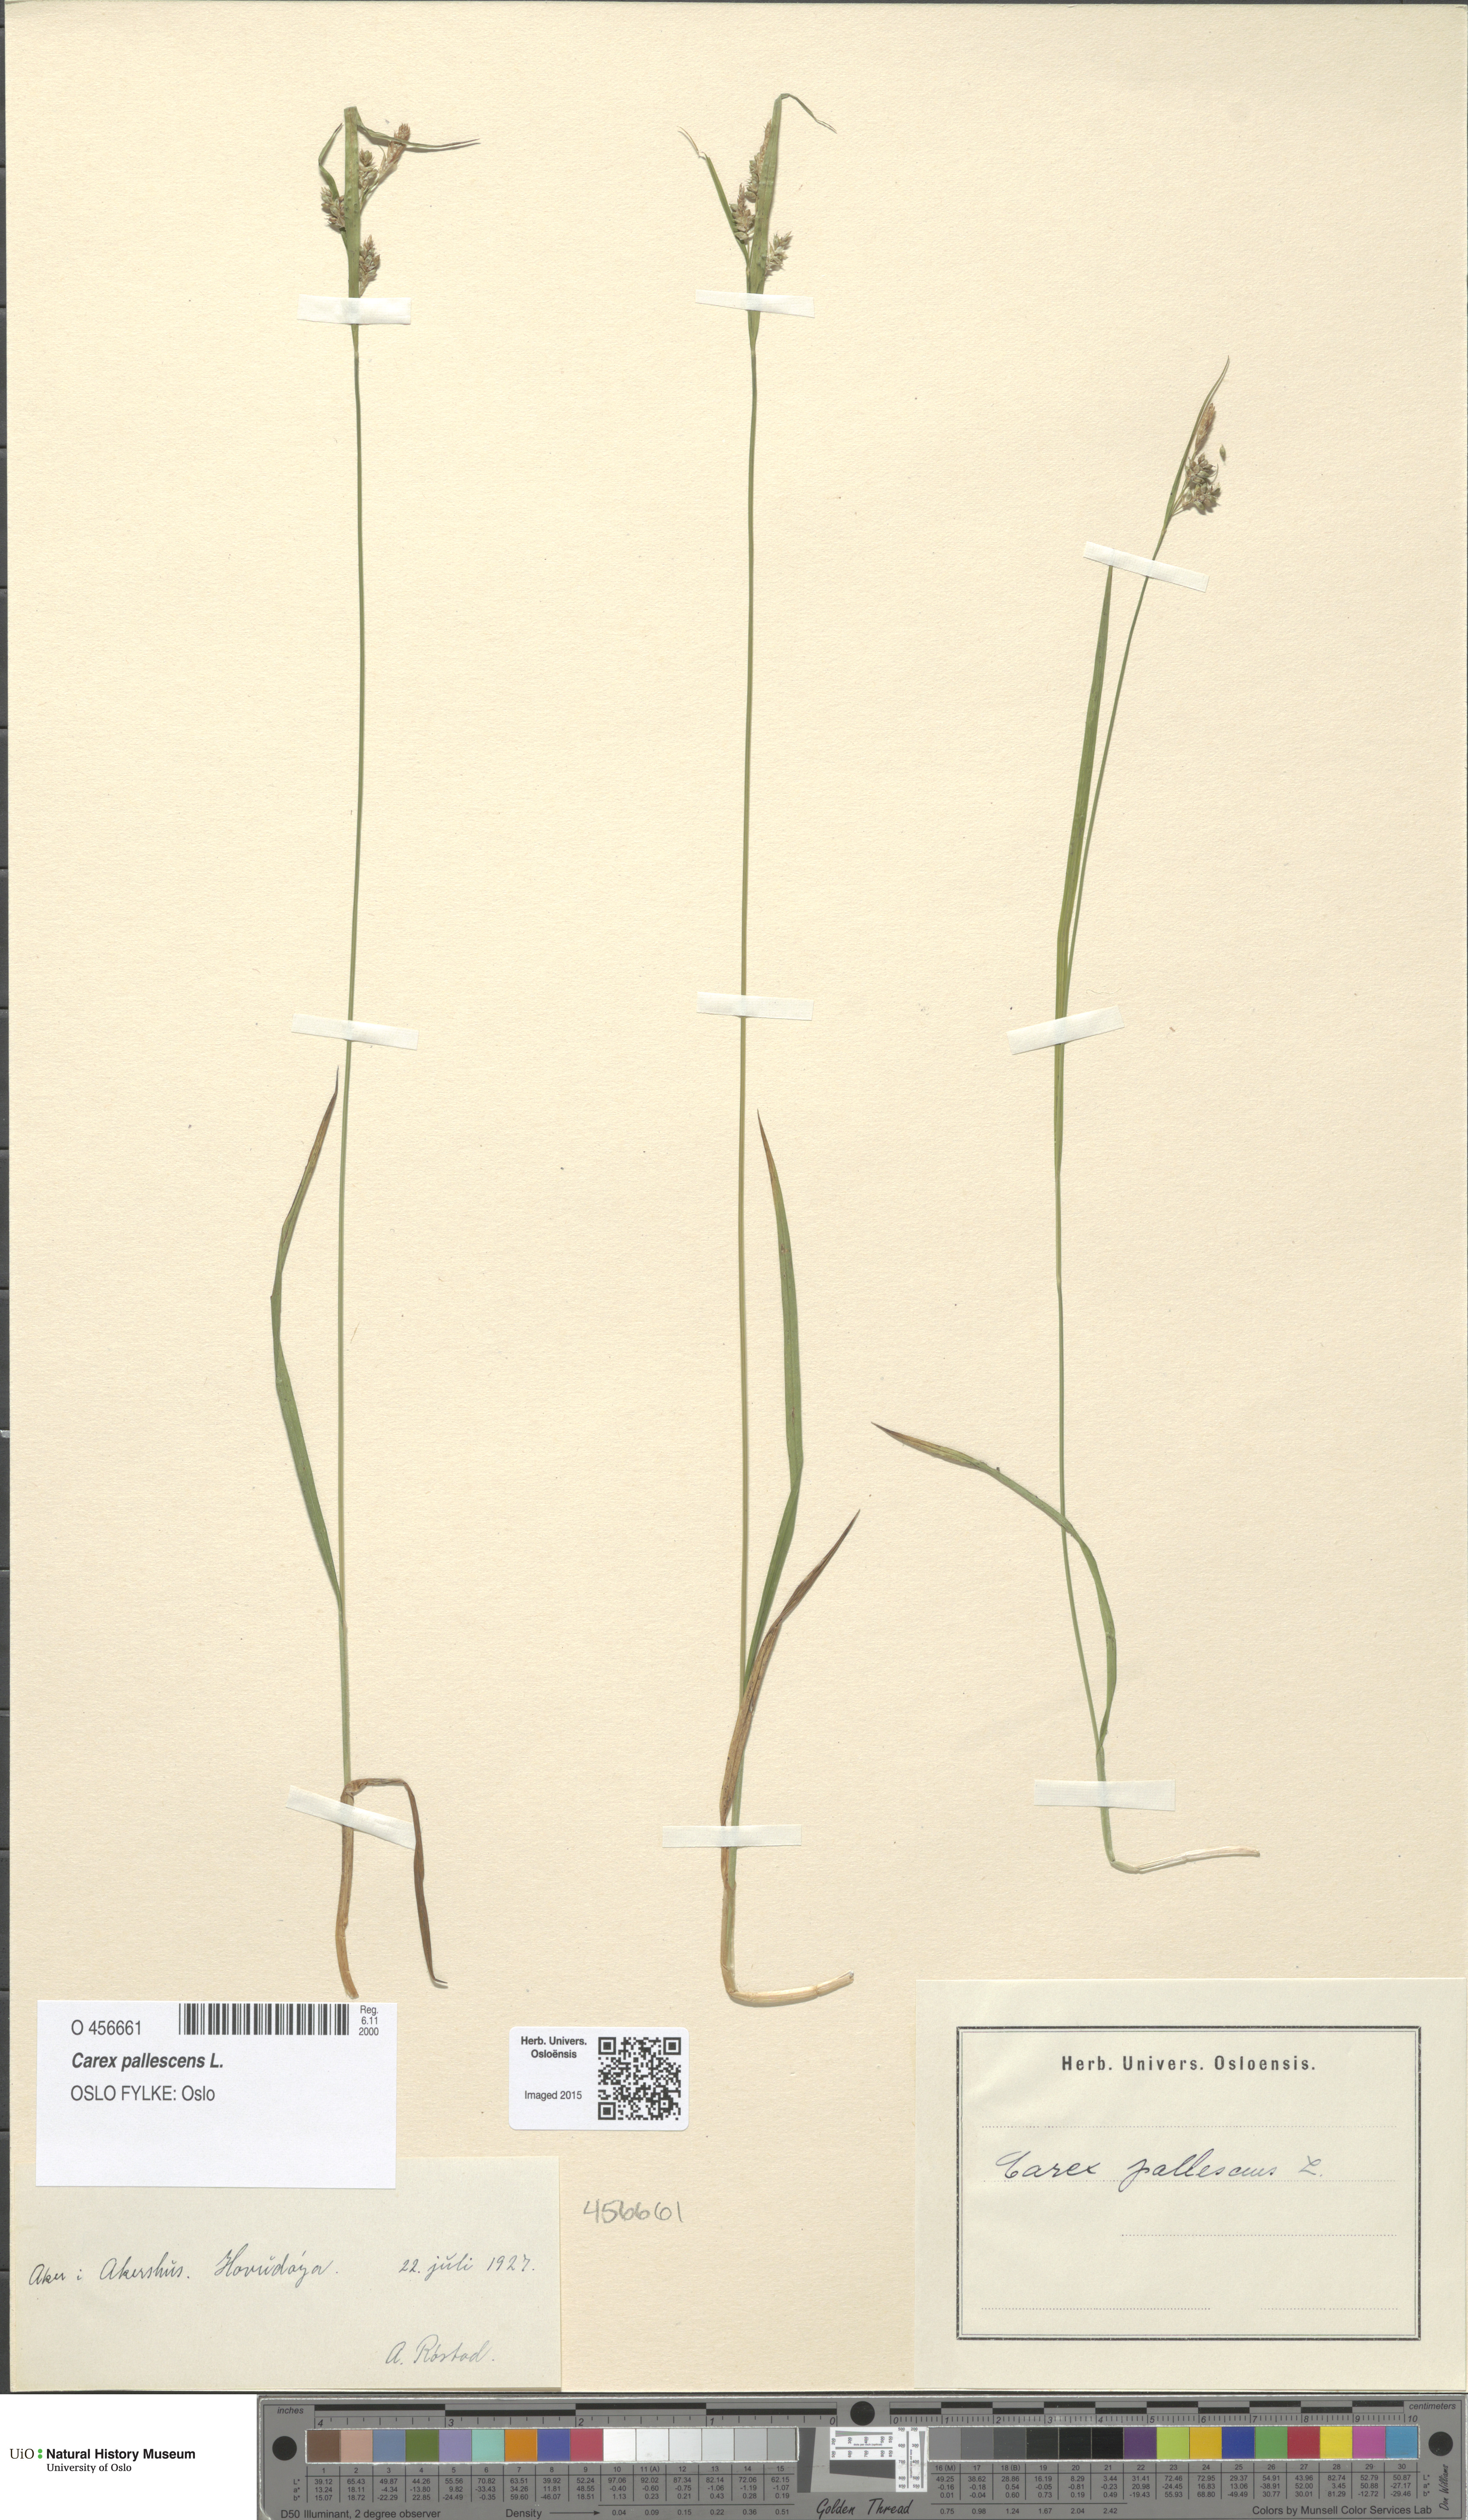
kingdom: Plantae
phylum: Tracheophyta
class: Liliopsida
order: Poales
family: Cyperaceae
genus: Carex
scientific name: Carex pallescens
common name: Pale sedge
